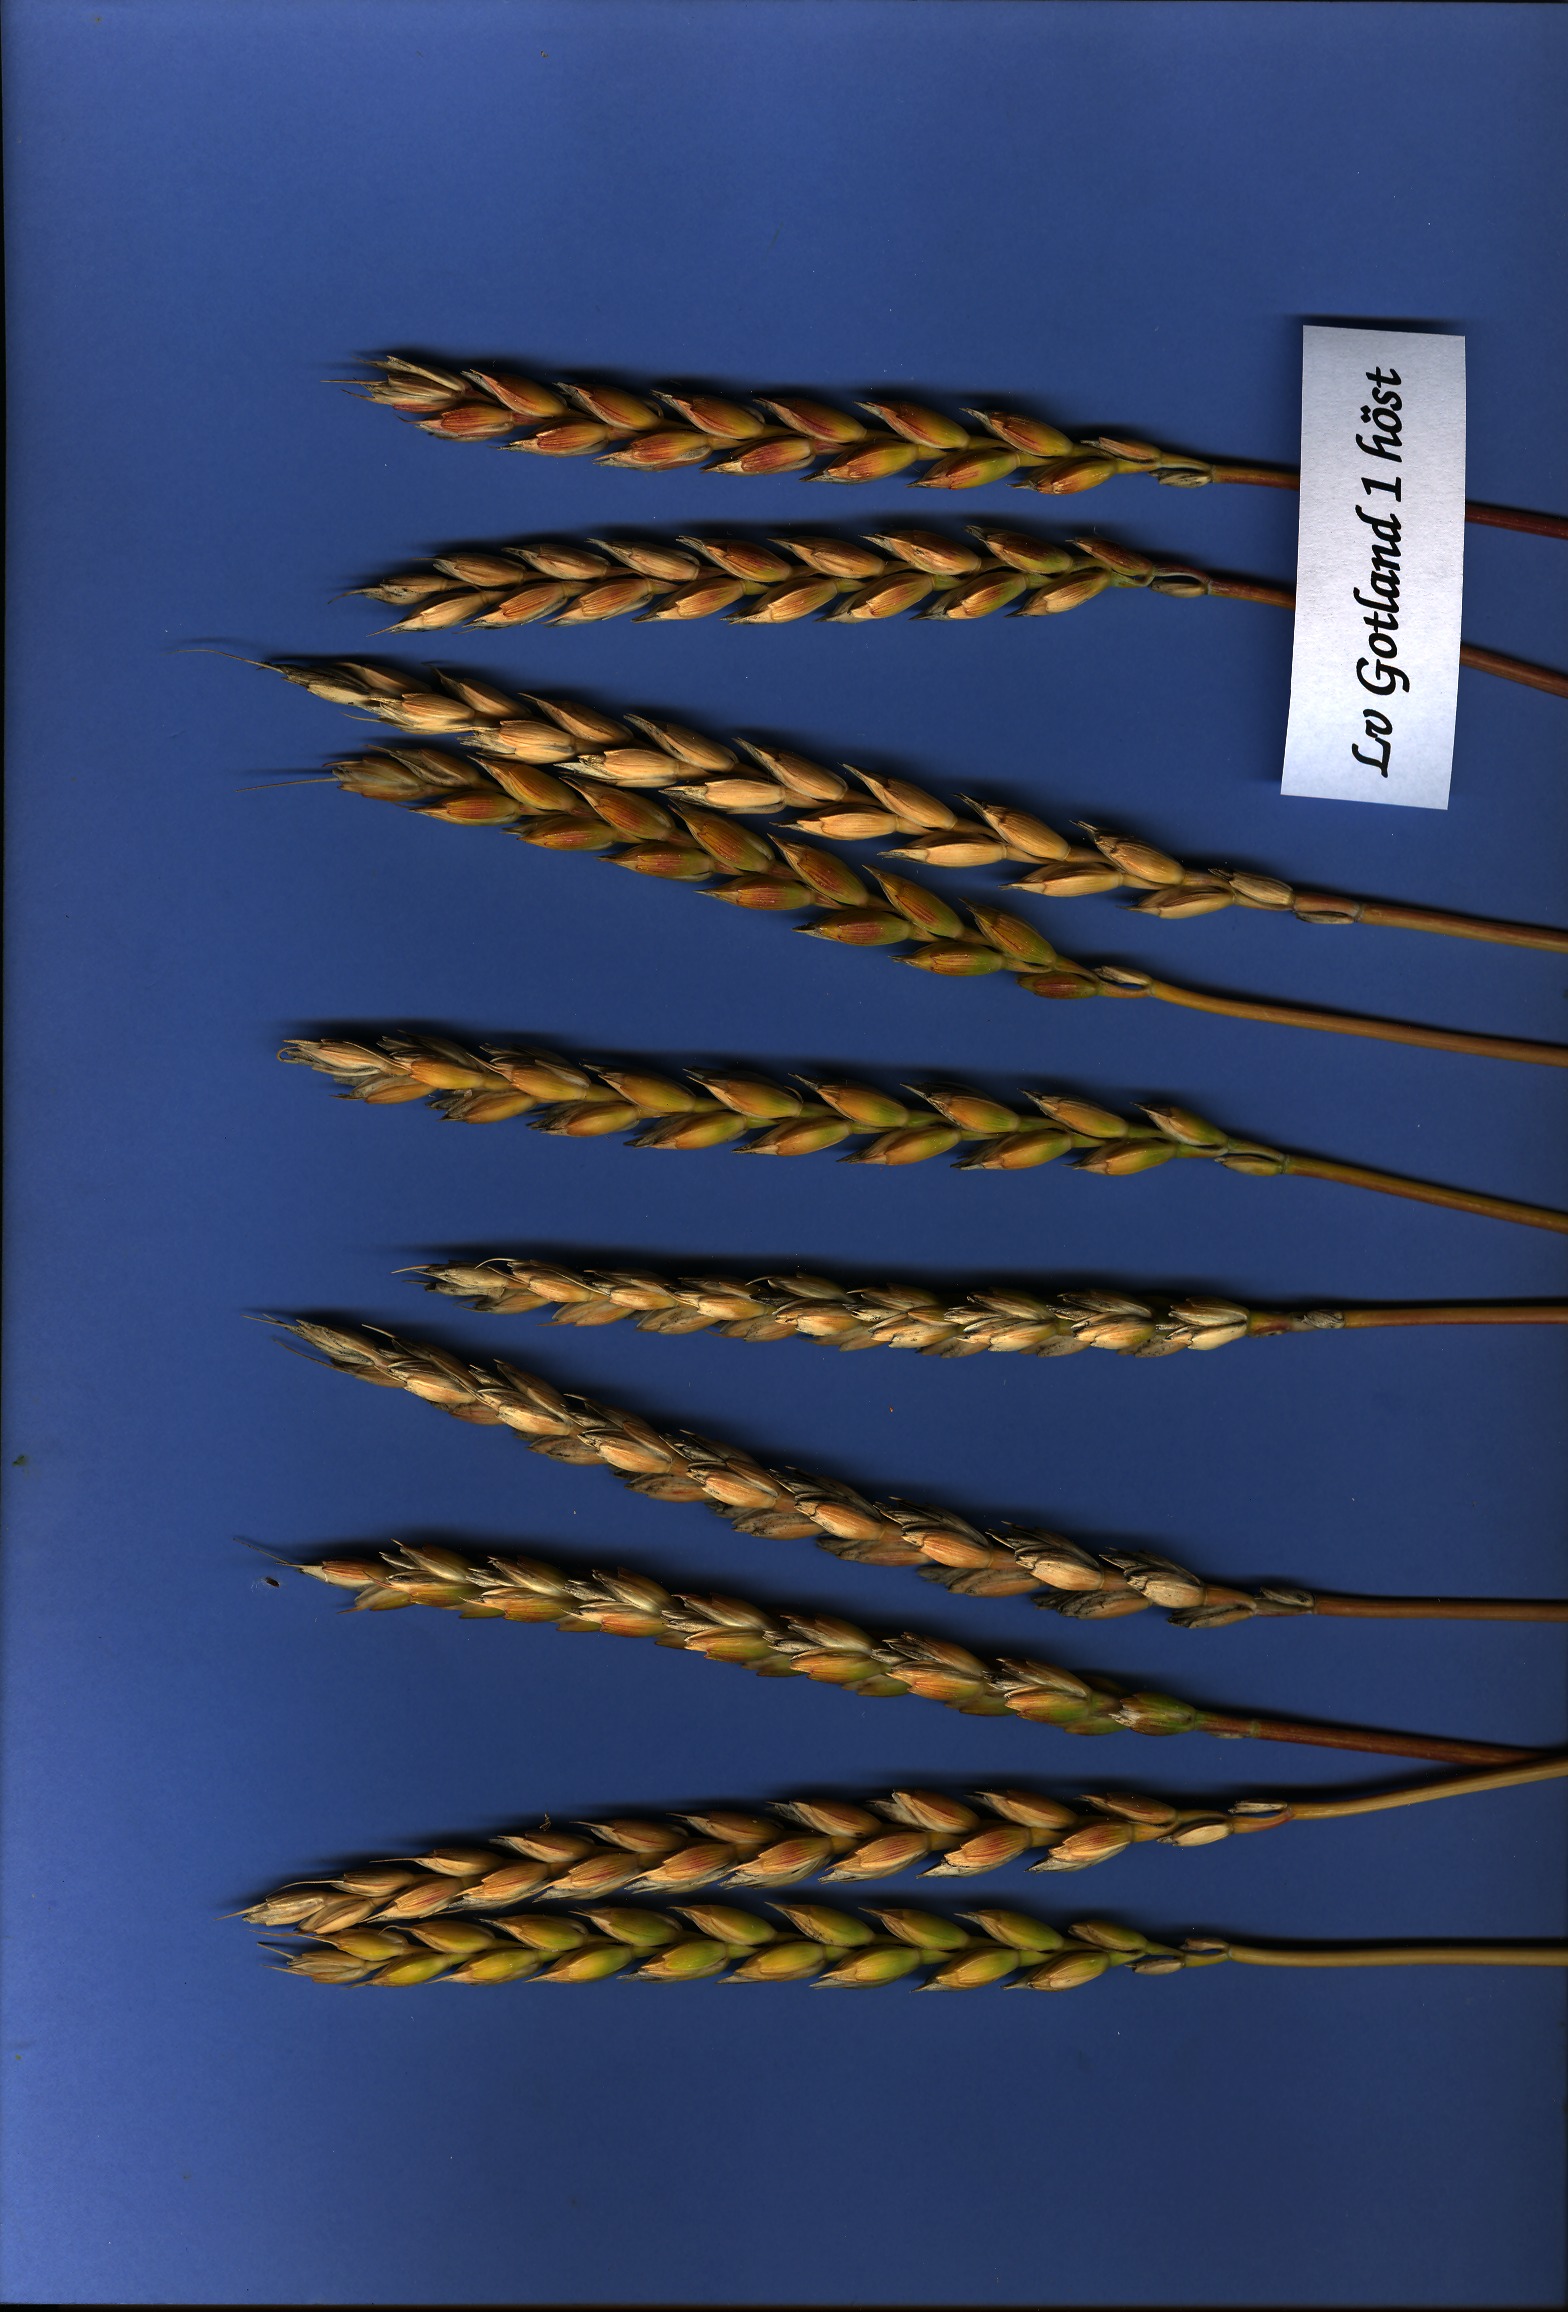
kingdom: Plantae
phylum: Tracheophyta
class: Liliopsida
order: Poales
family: Poaceae
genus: Triticum
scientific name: Triticum aestivum
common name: Common wheat
